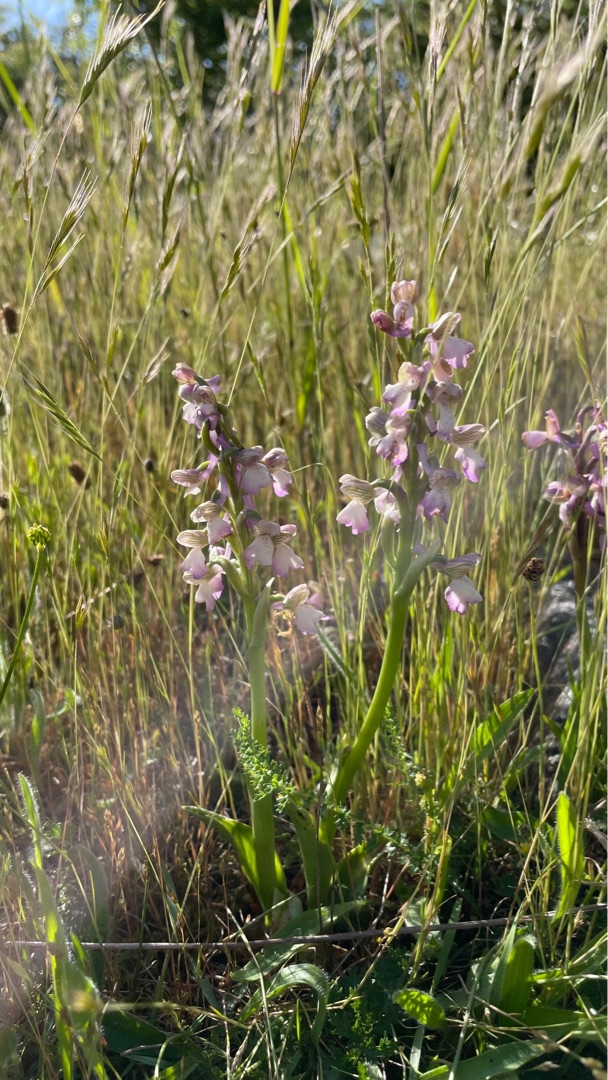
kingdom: Plantae
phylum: Tracheophyta
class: Liliopsida
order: Asparagales
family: Orchidaceae
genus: Anacamptis
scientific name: Anacamptis morio
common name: Salepgøgeurt
